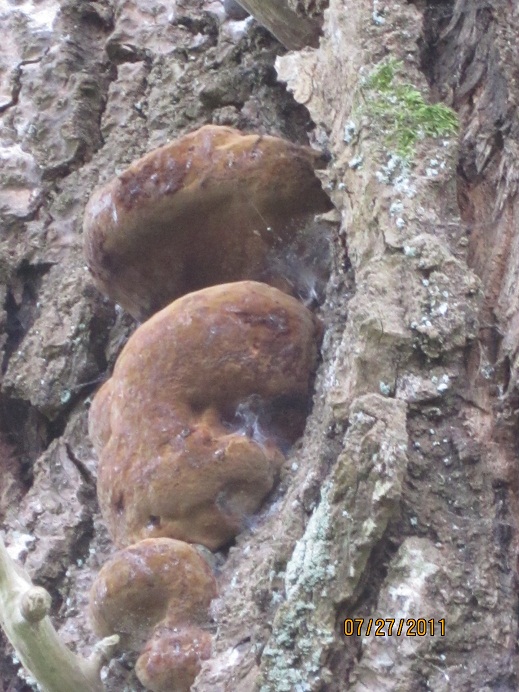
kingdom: Fungi
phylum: Basidiomycota
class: Agaricomycetes
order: Hymenochaetales
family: Hymenochaetaceae
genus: Phellinus
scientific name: Phellinus populicola
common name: poppel-ildporesvamp
